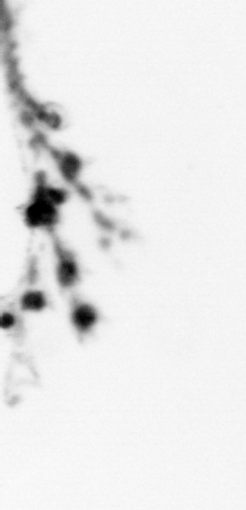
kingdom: Animalia
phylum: Cnidaria
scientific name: Cnidaria
